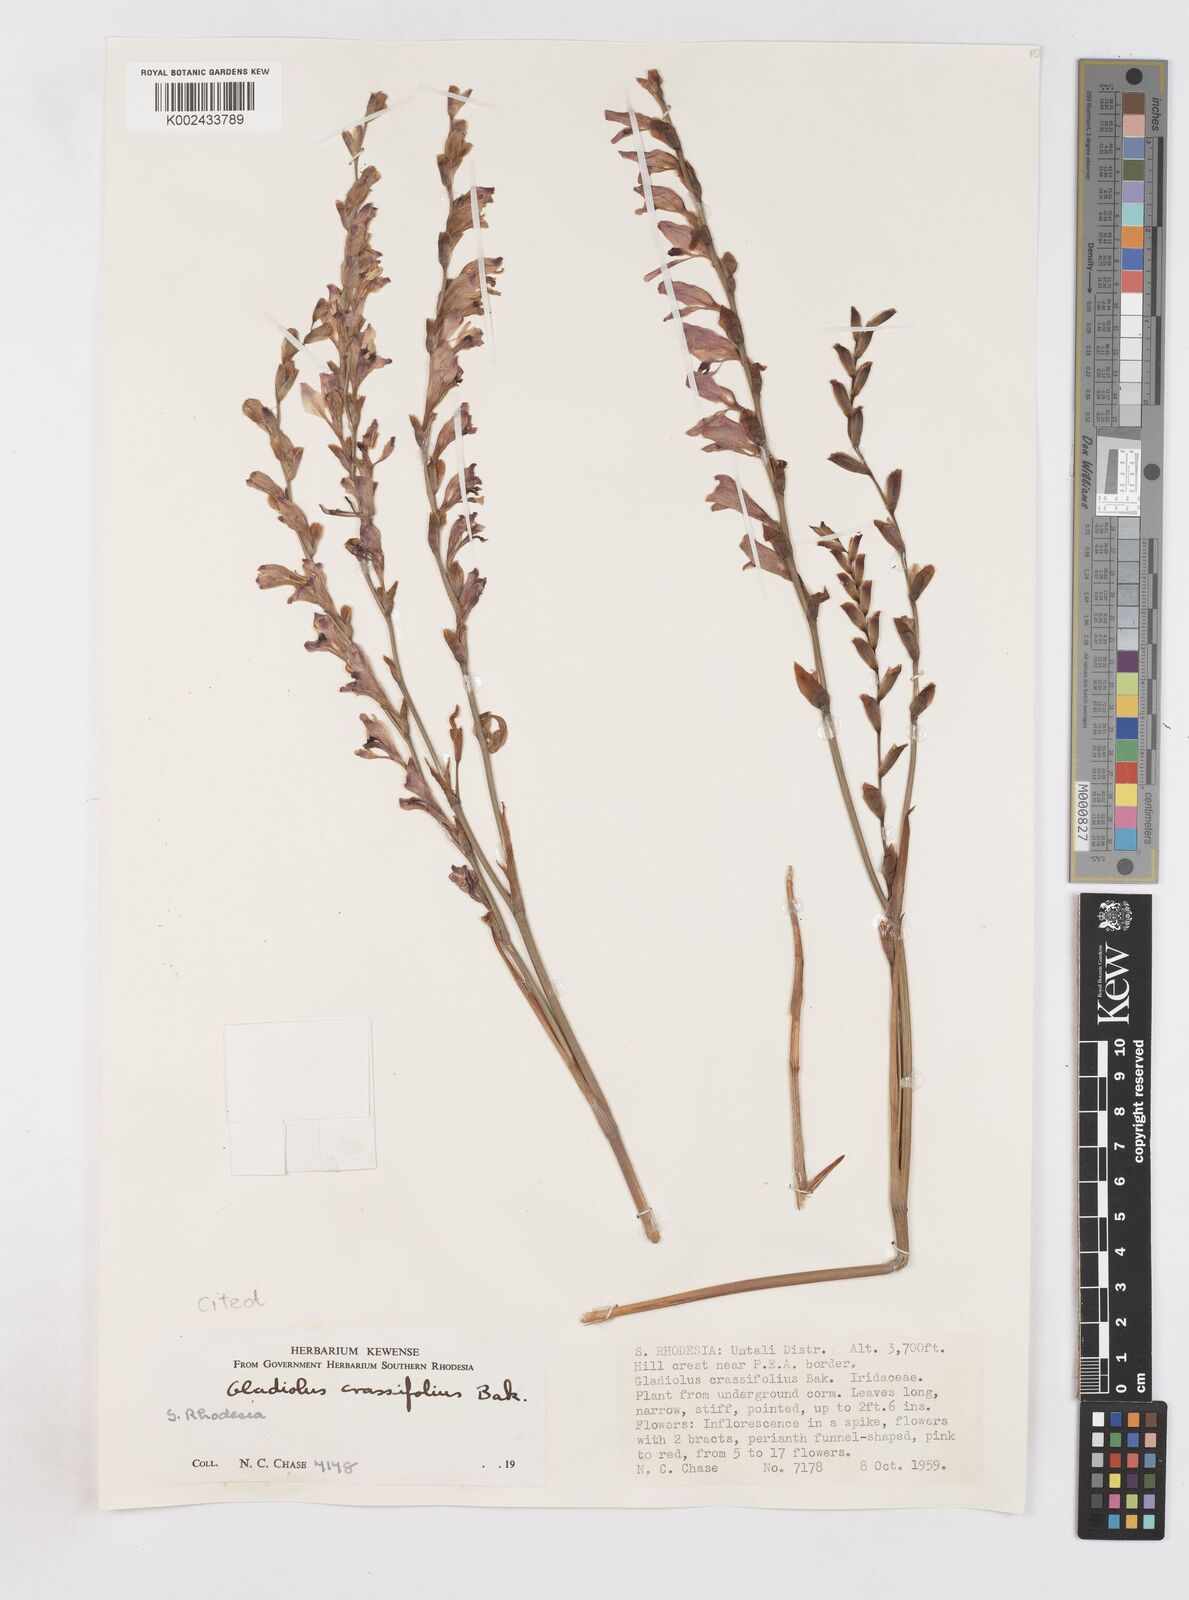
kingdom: Plantae
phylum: Tracheophyta
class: Liliopsida
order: Asparagales
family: Iridaceae
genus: Gladiolus
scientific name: Gladiolus crassifolius
